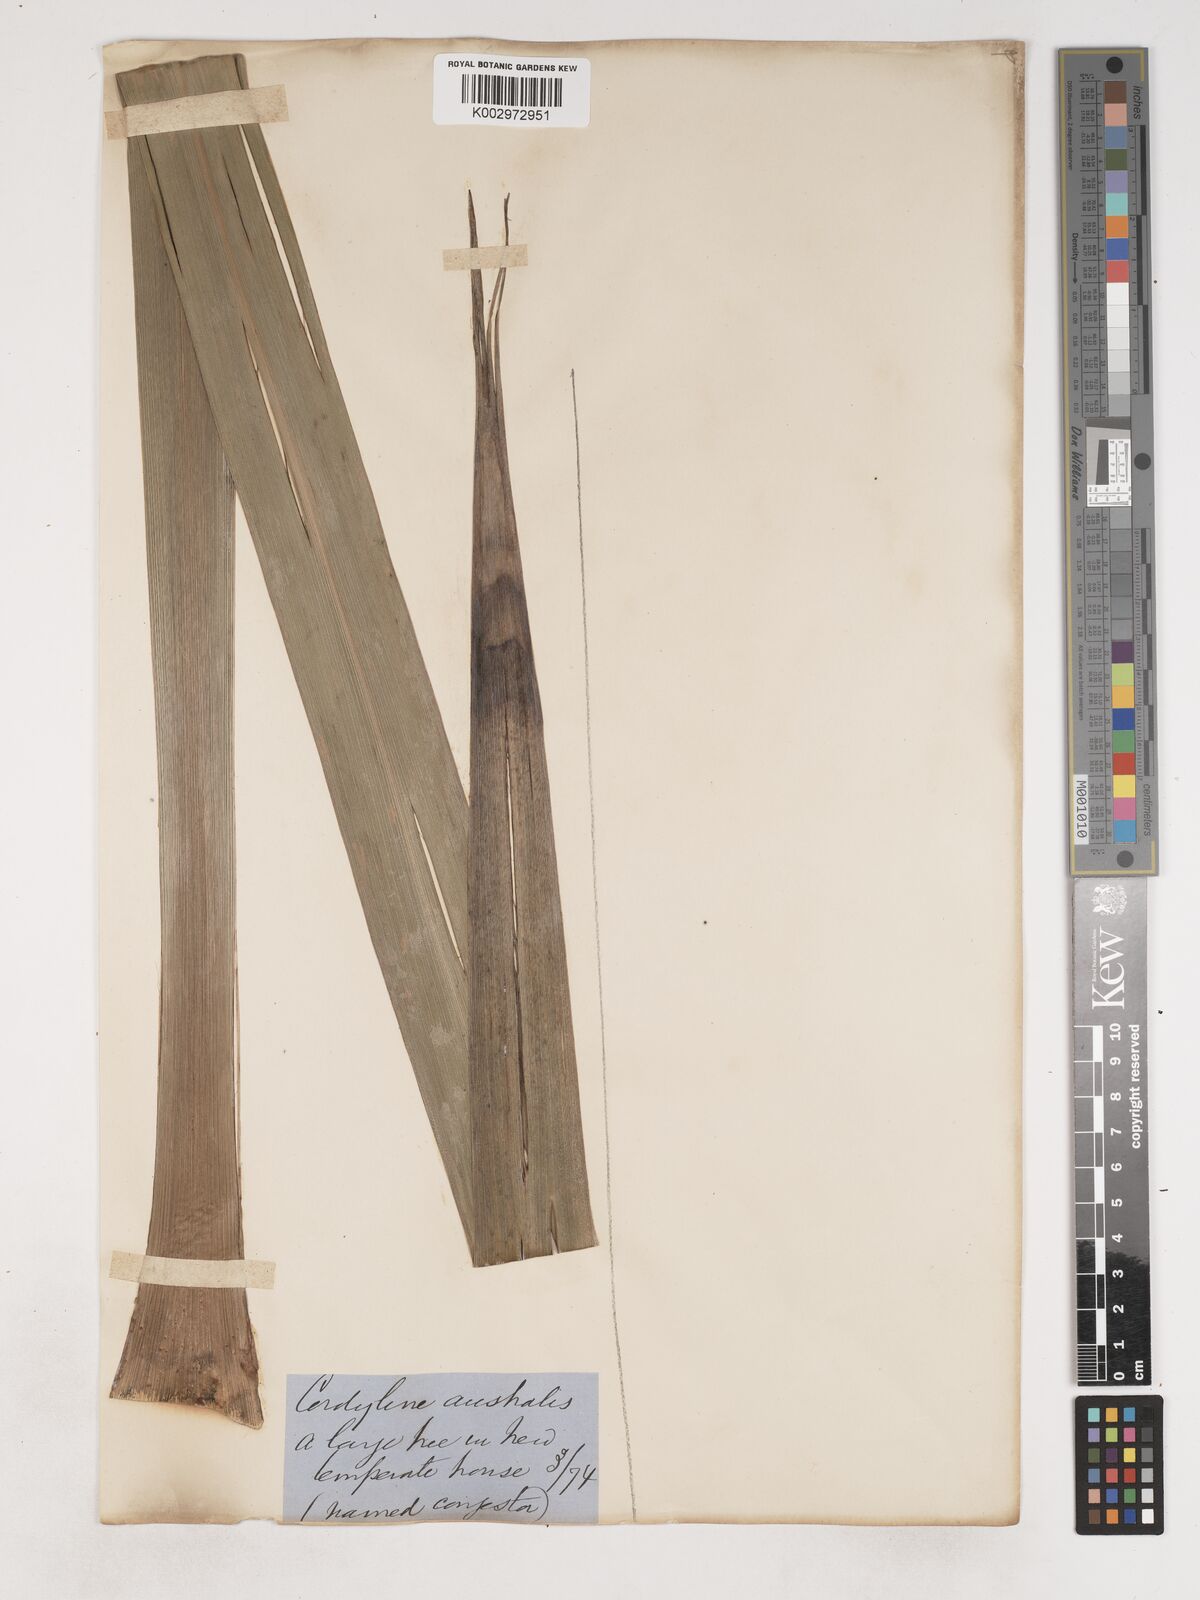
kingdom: Plantae
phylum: Tracheophyta
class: Liliopsida
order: Asparagales
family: Asparagaceae
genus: Cordyline
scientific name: Cordyline australis
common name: Cabbage-palm
